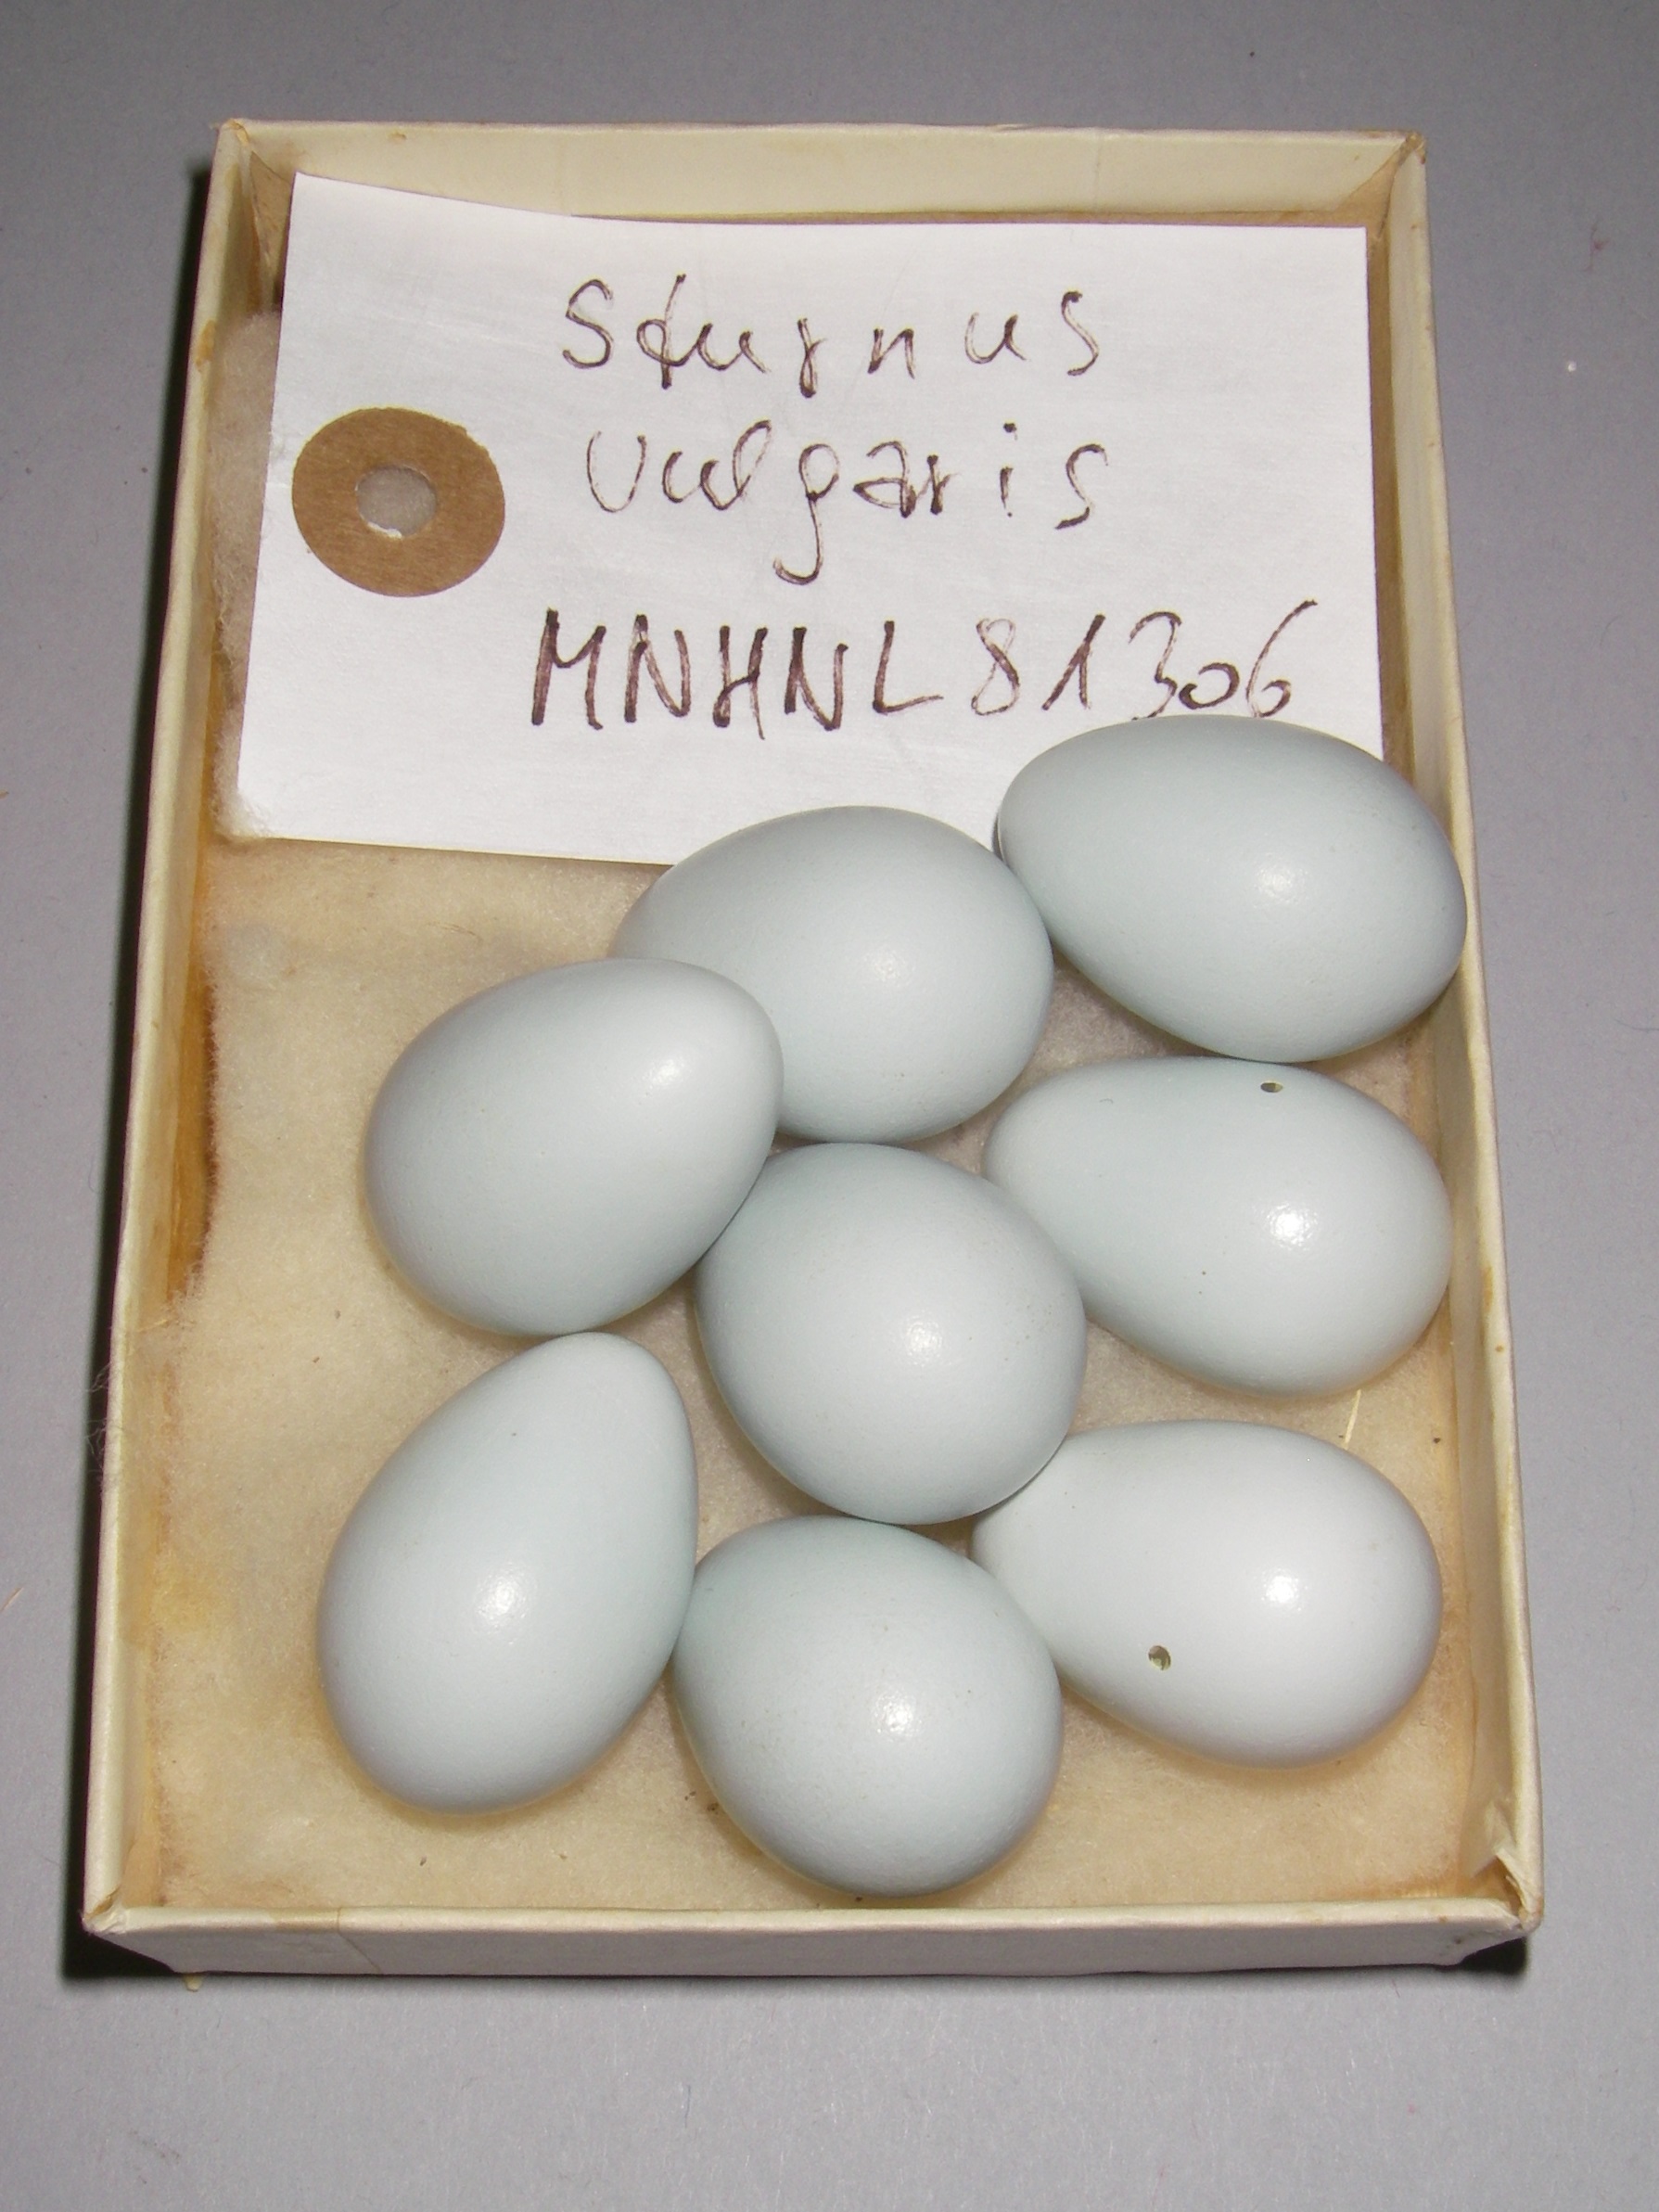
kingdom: Animalia
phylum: Chordata
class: Aves
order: Passeriformes
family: Sturnidae
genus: Sturnus
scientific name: Sturnus vulgaris
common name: Common starling
